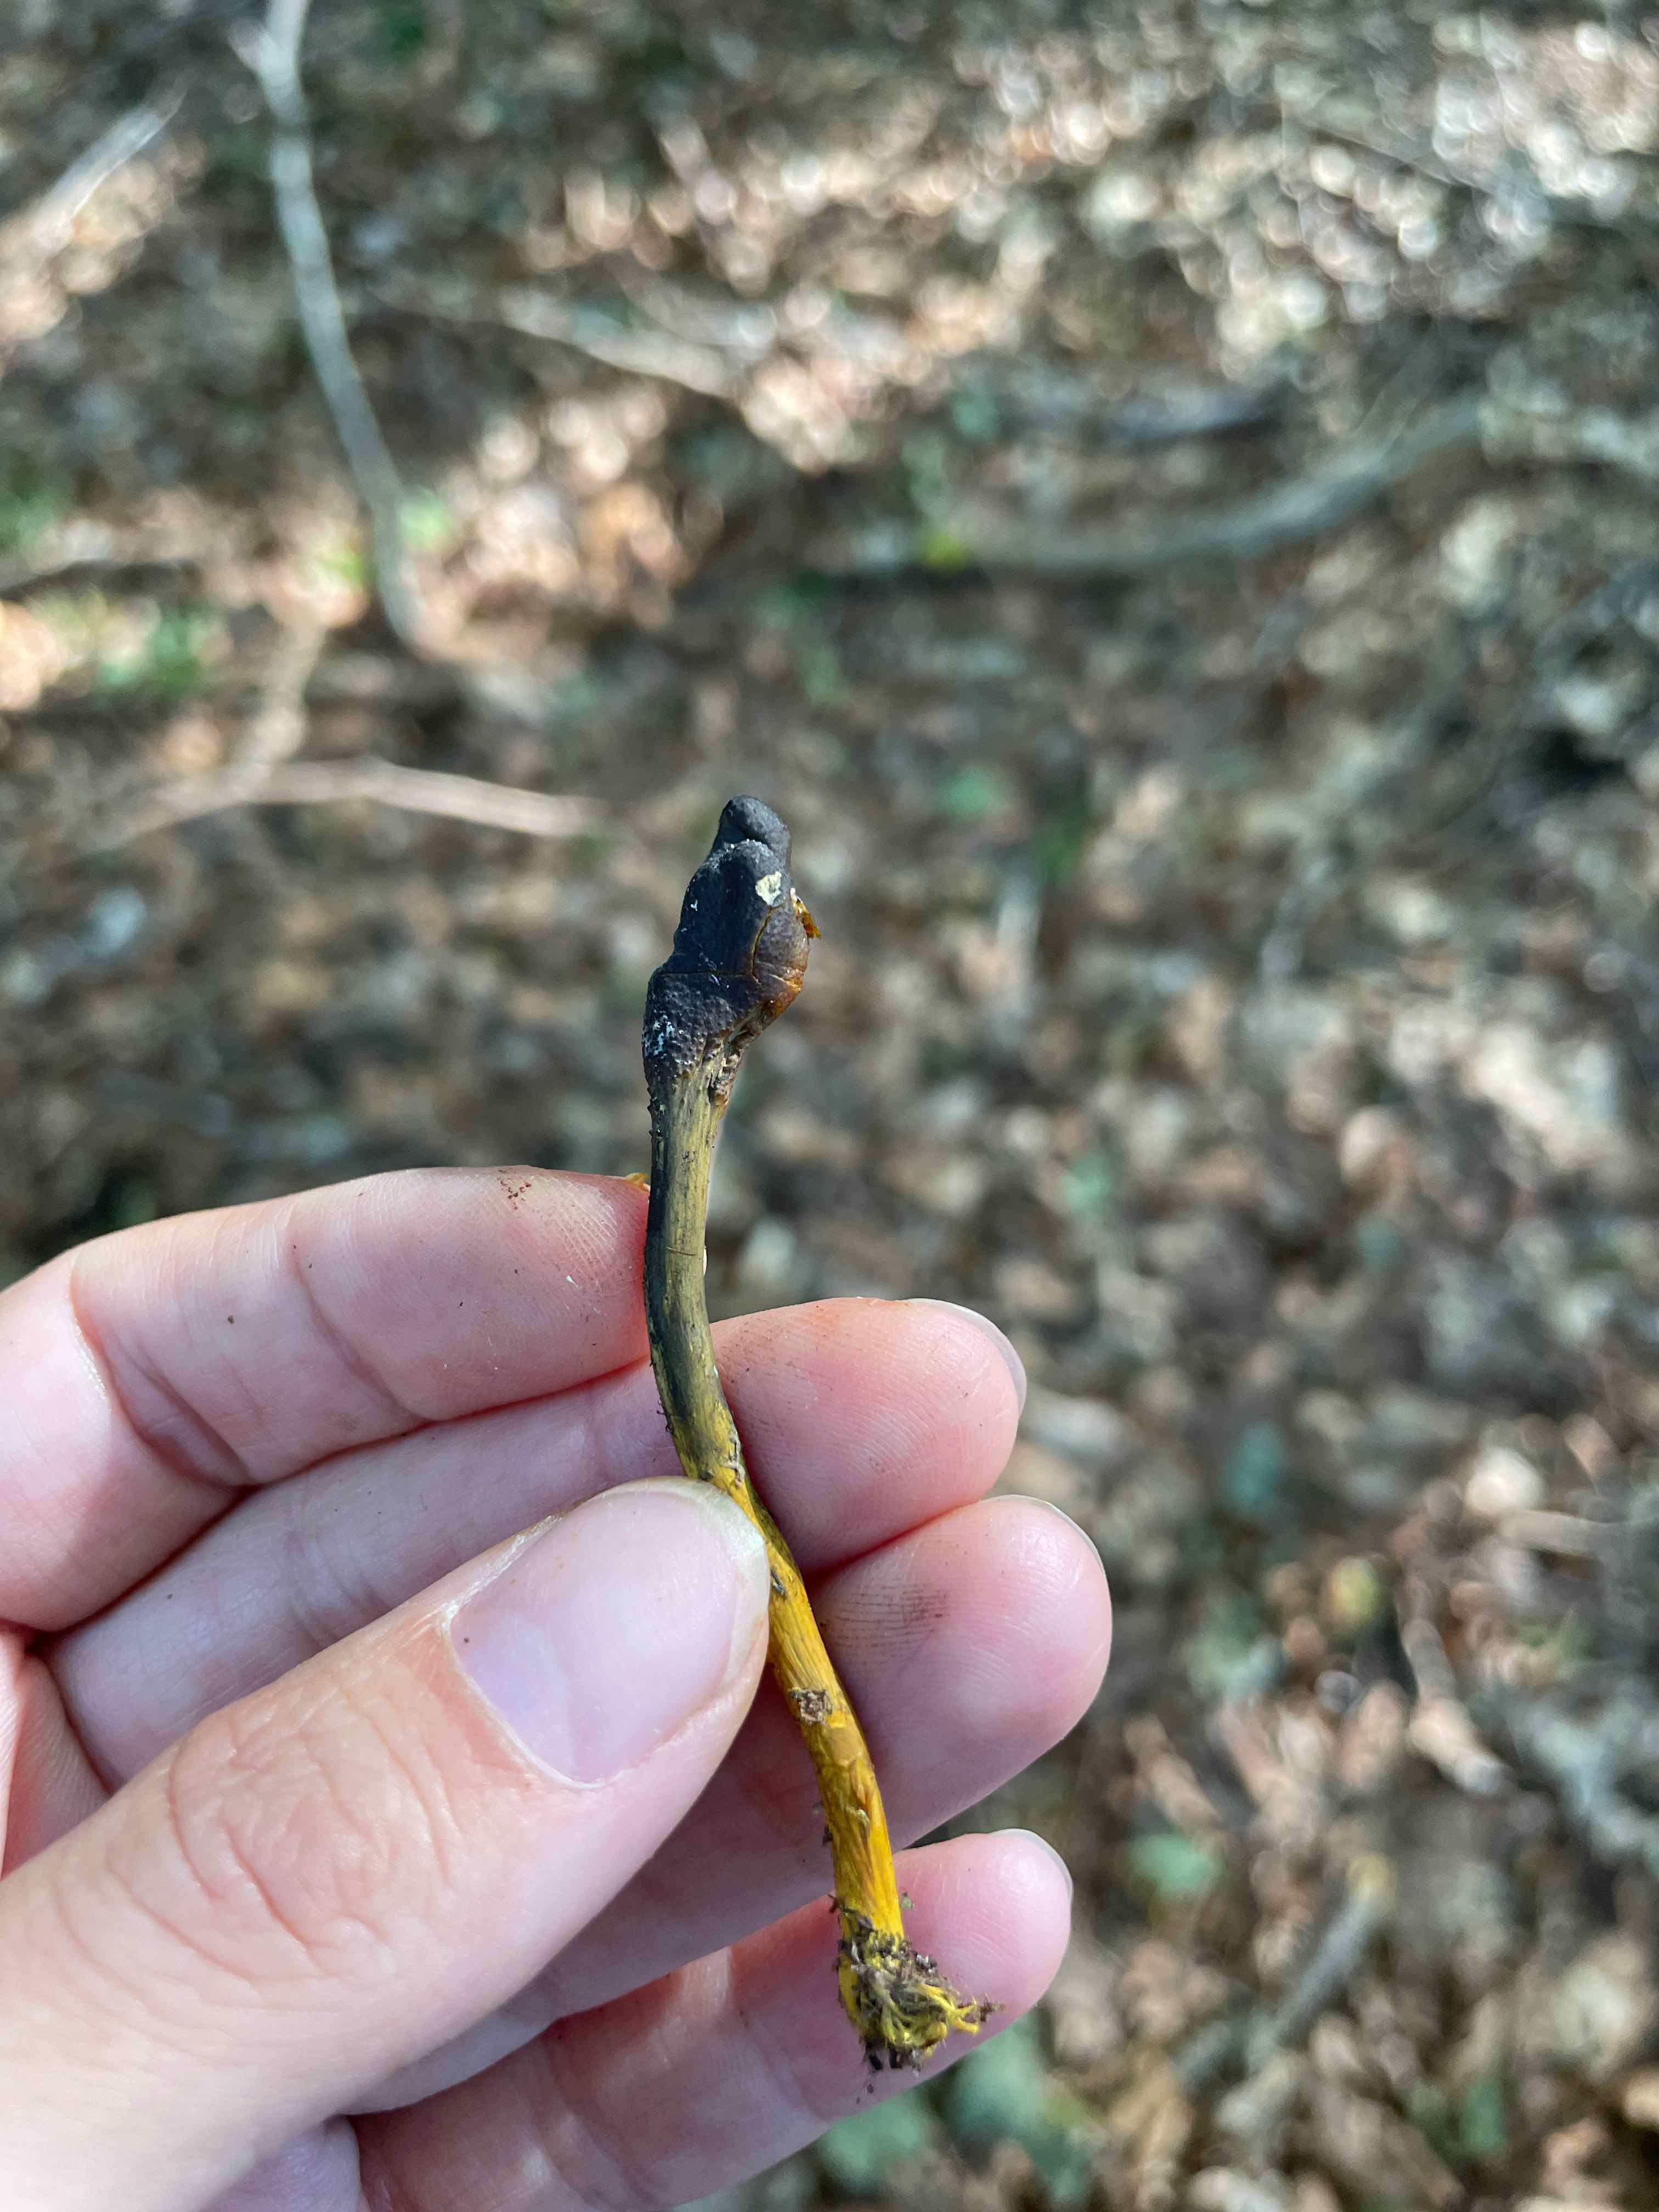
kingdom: Fungi
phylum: Ascomycota
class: Sordariomycetes
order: Hypocreales
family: Ophiocordycipitaceae
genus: Tolypocladium
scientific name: Tolypocladium ophioglossoides
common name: slank snyltekølle
